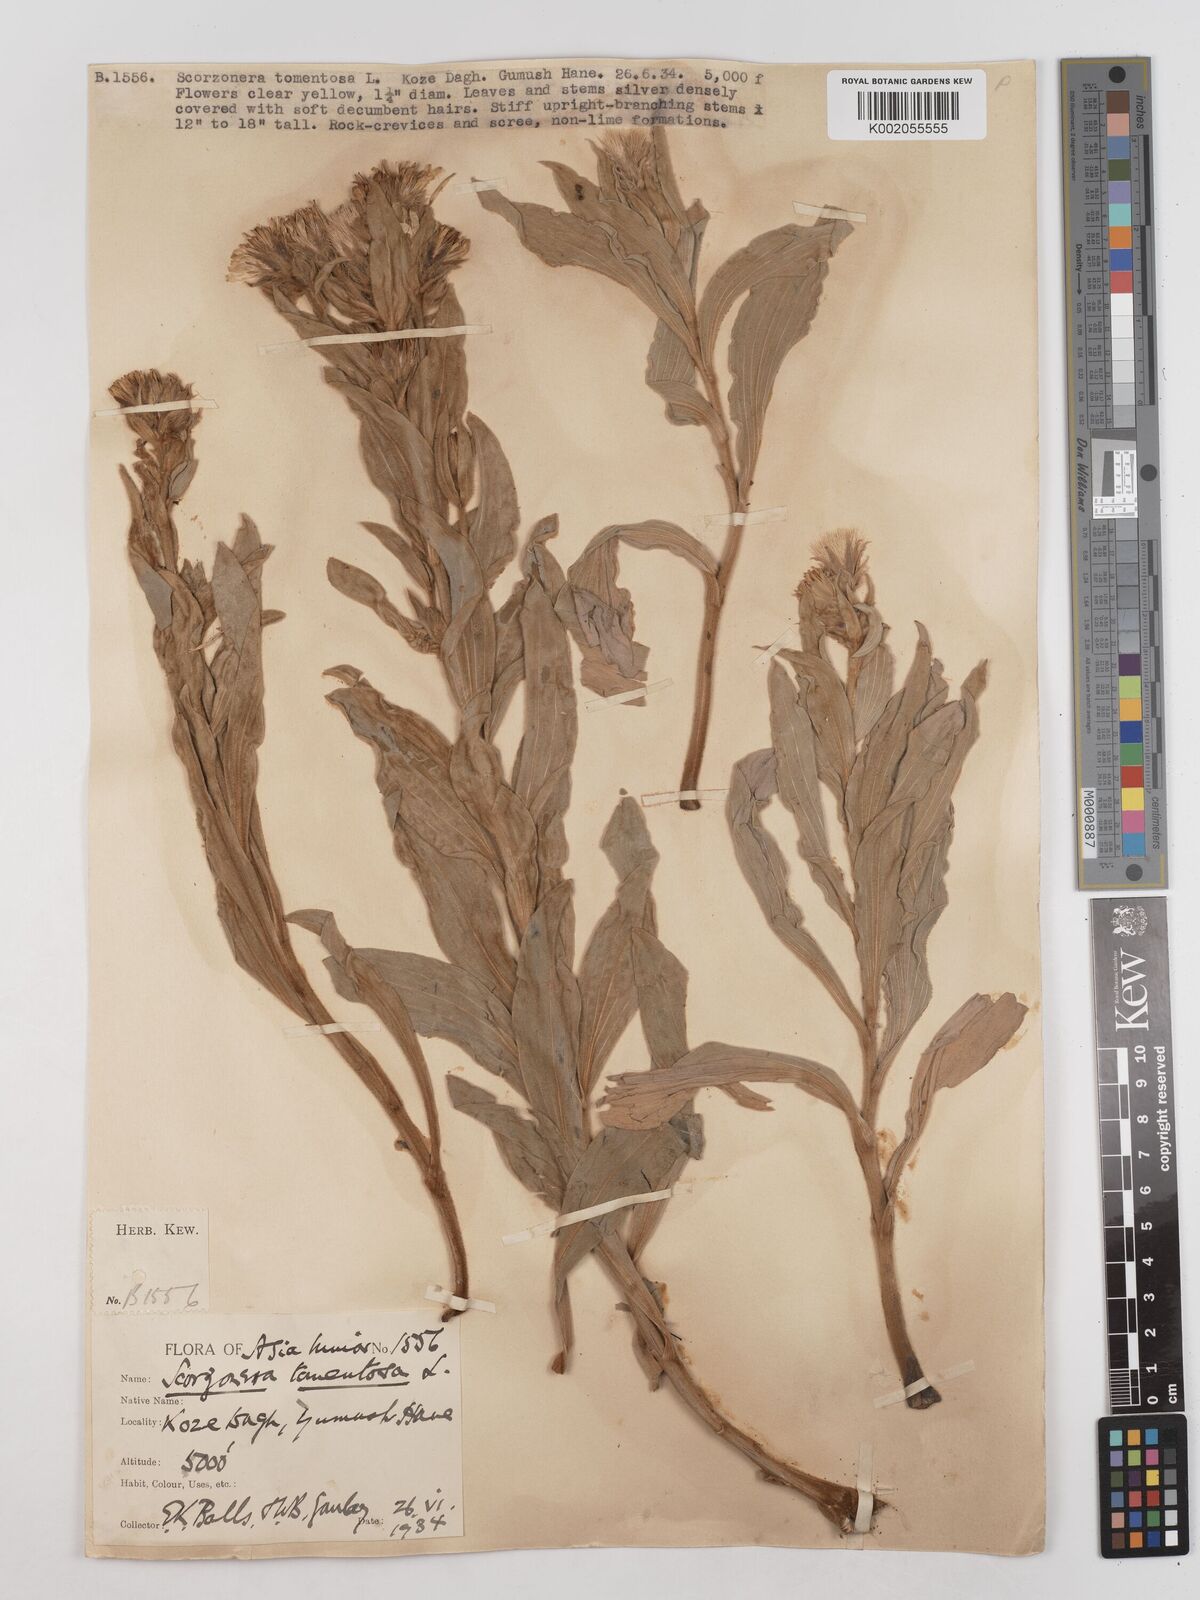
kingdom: Plantae
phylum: Tracheophyta
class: Magnoliopsida
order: Asterales
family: Asteraceae
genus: Candollea
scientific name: Candollea mollis
